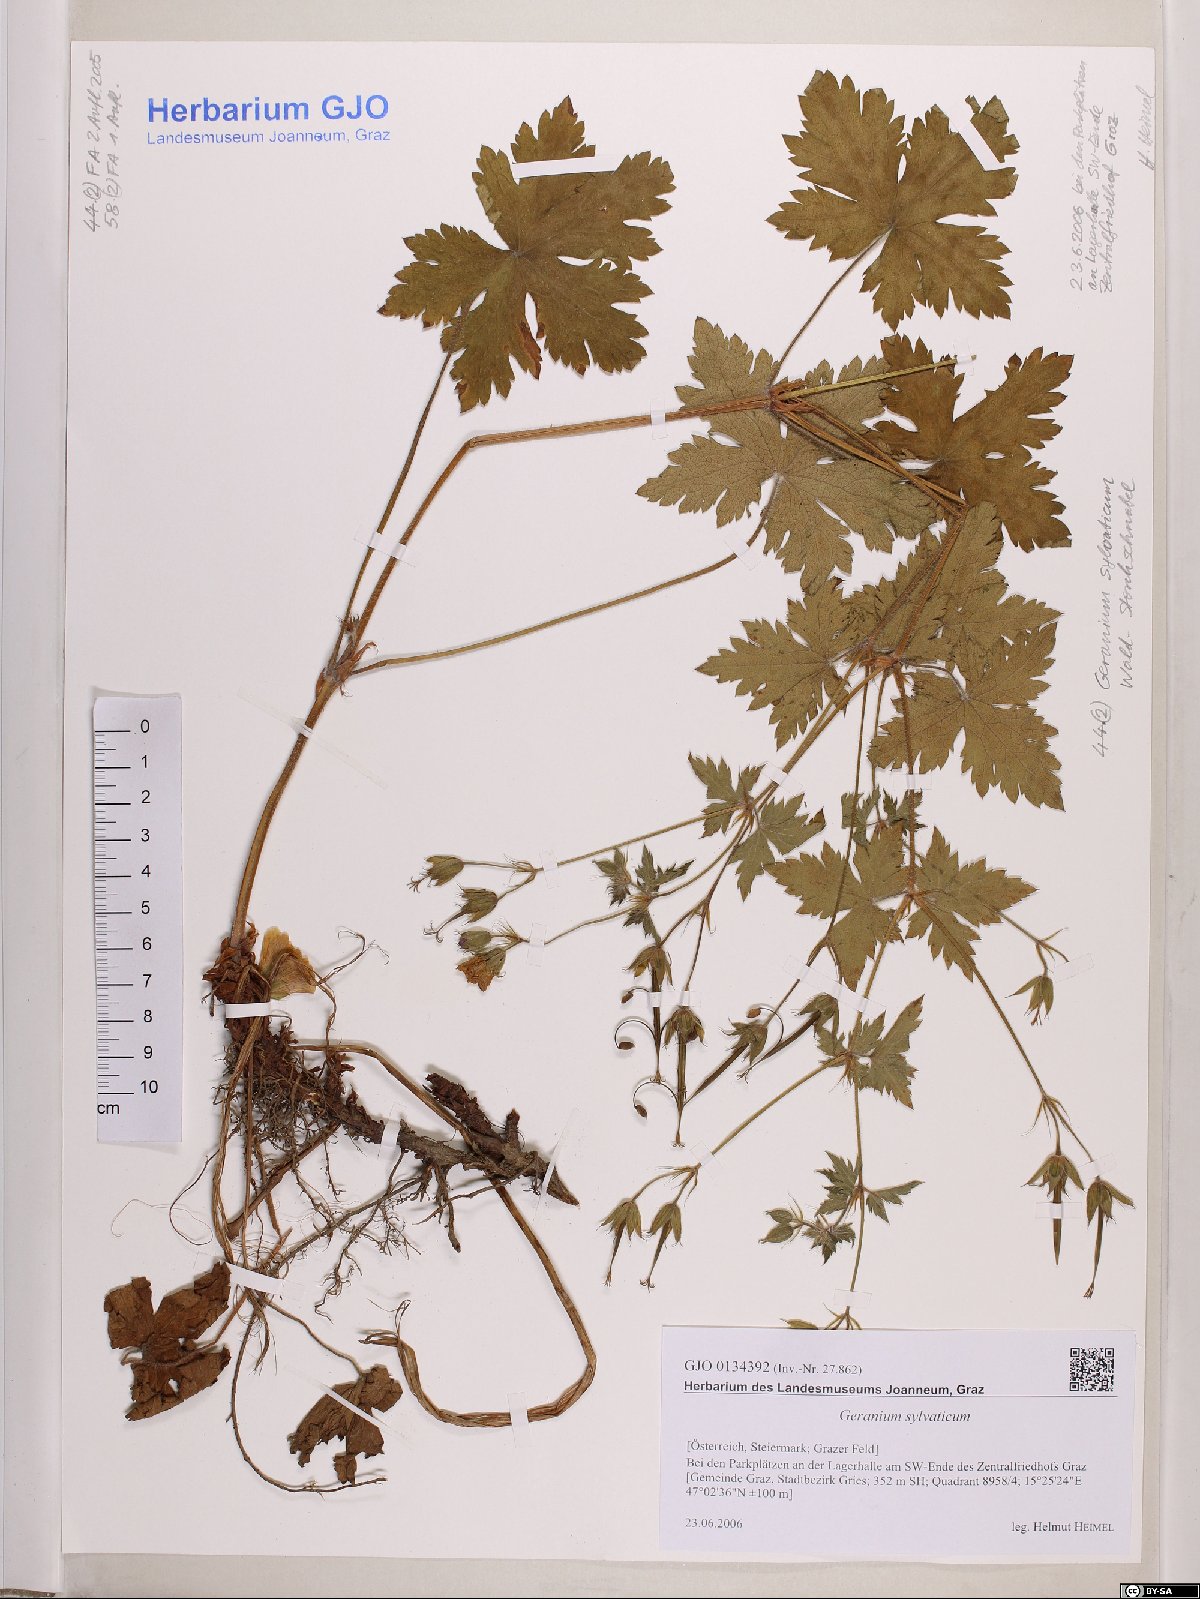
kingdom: Plantae
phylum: Tracheophyta
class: Magnoliopsida
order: Geraniales
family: Geraniaceae
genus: Geranium
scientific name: Geranium sylvaticum
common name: Wood crane's-bill
